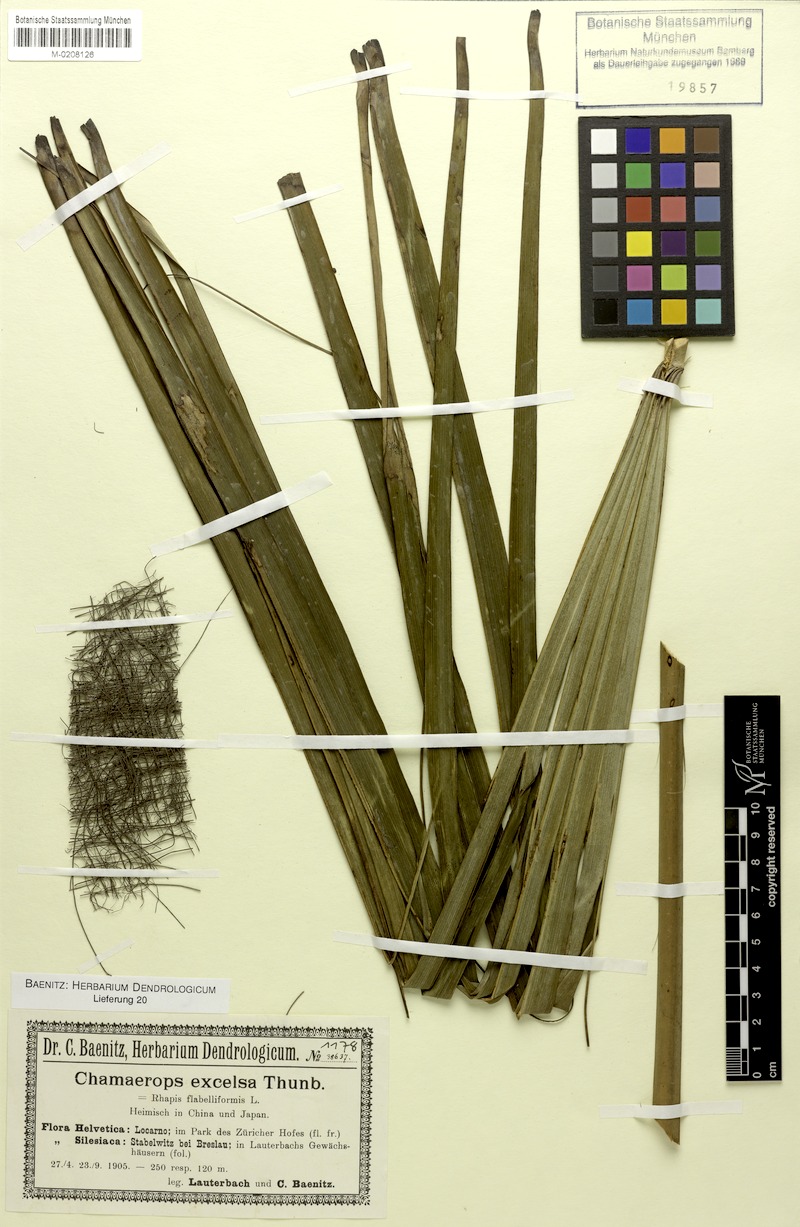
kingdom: Plantae
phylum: Tracheophyta
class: Liliopsida
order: Arecales
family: Arecaceae
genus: Trachycarpus
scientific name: Trachycarpus fortunei
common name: Chusan palm
